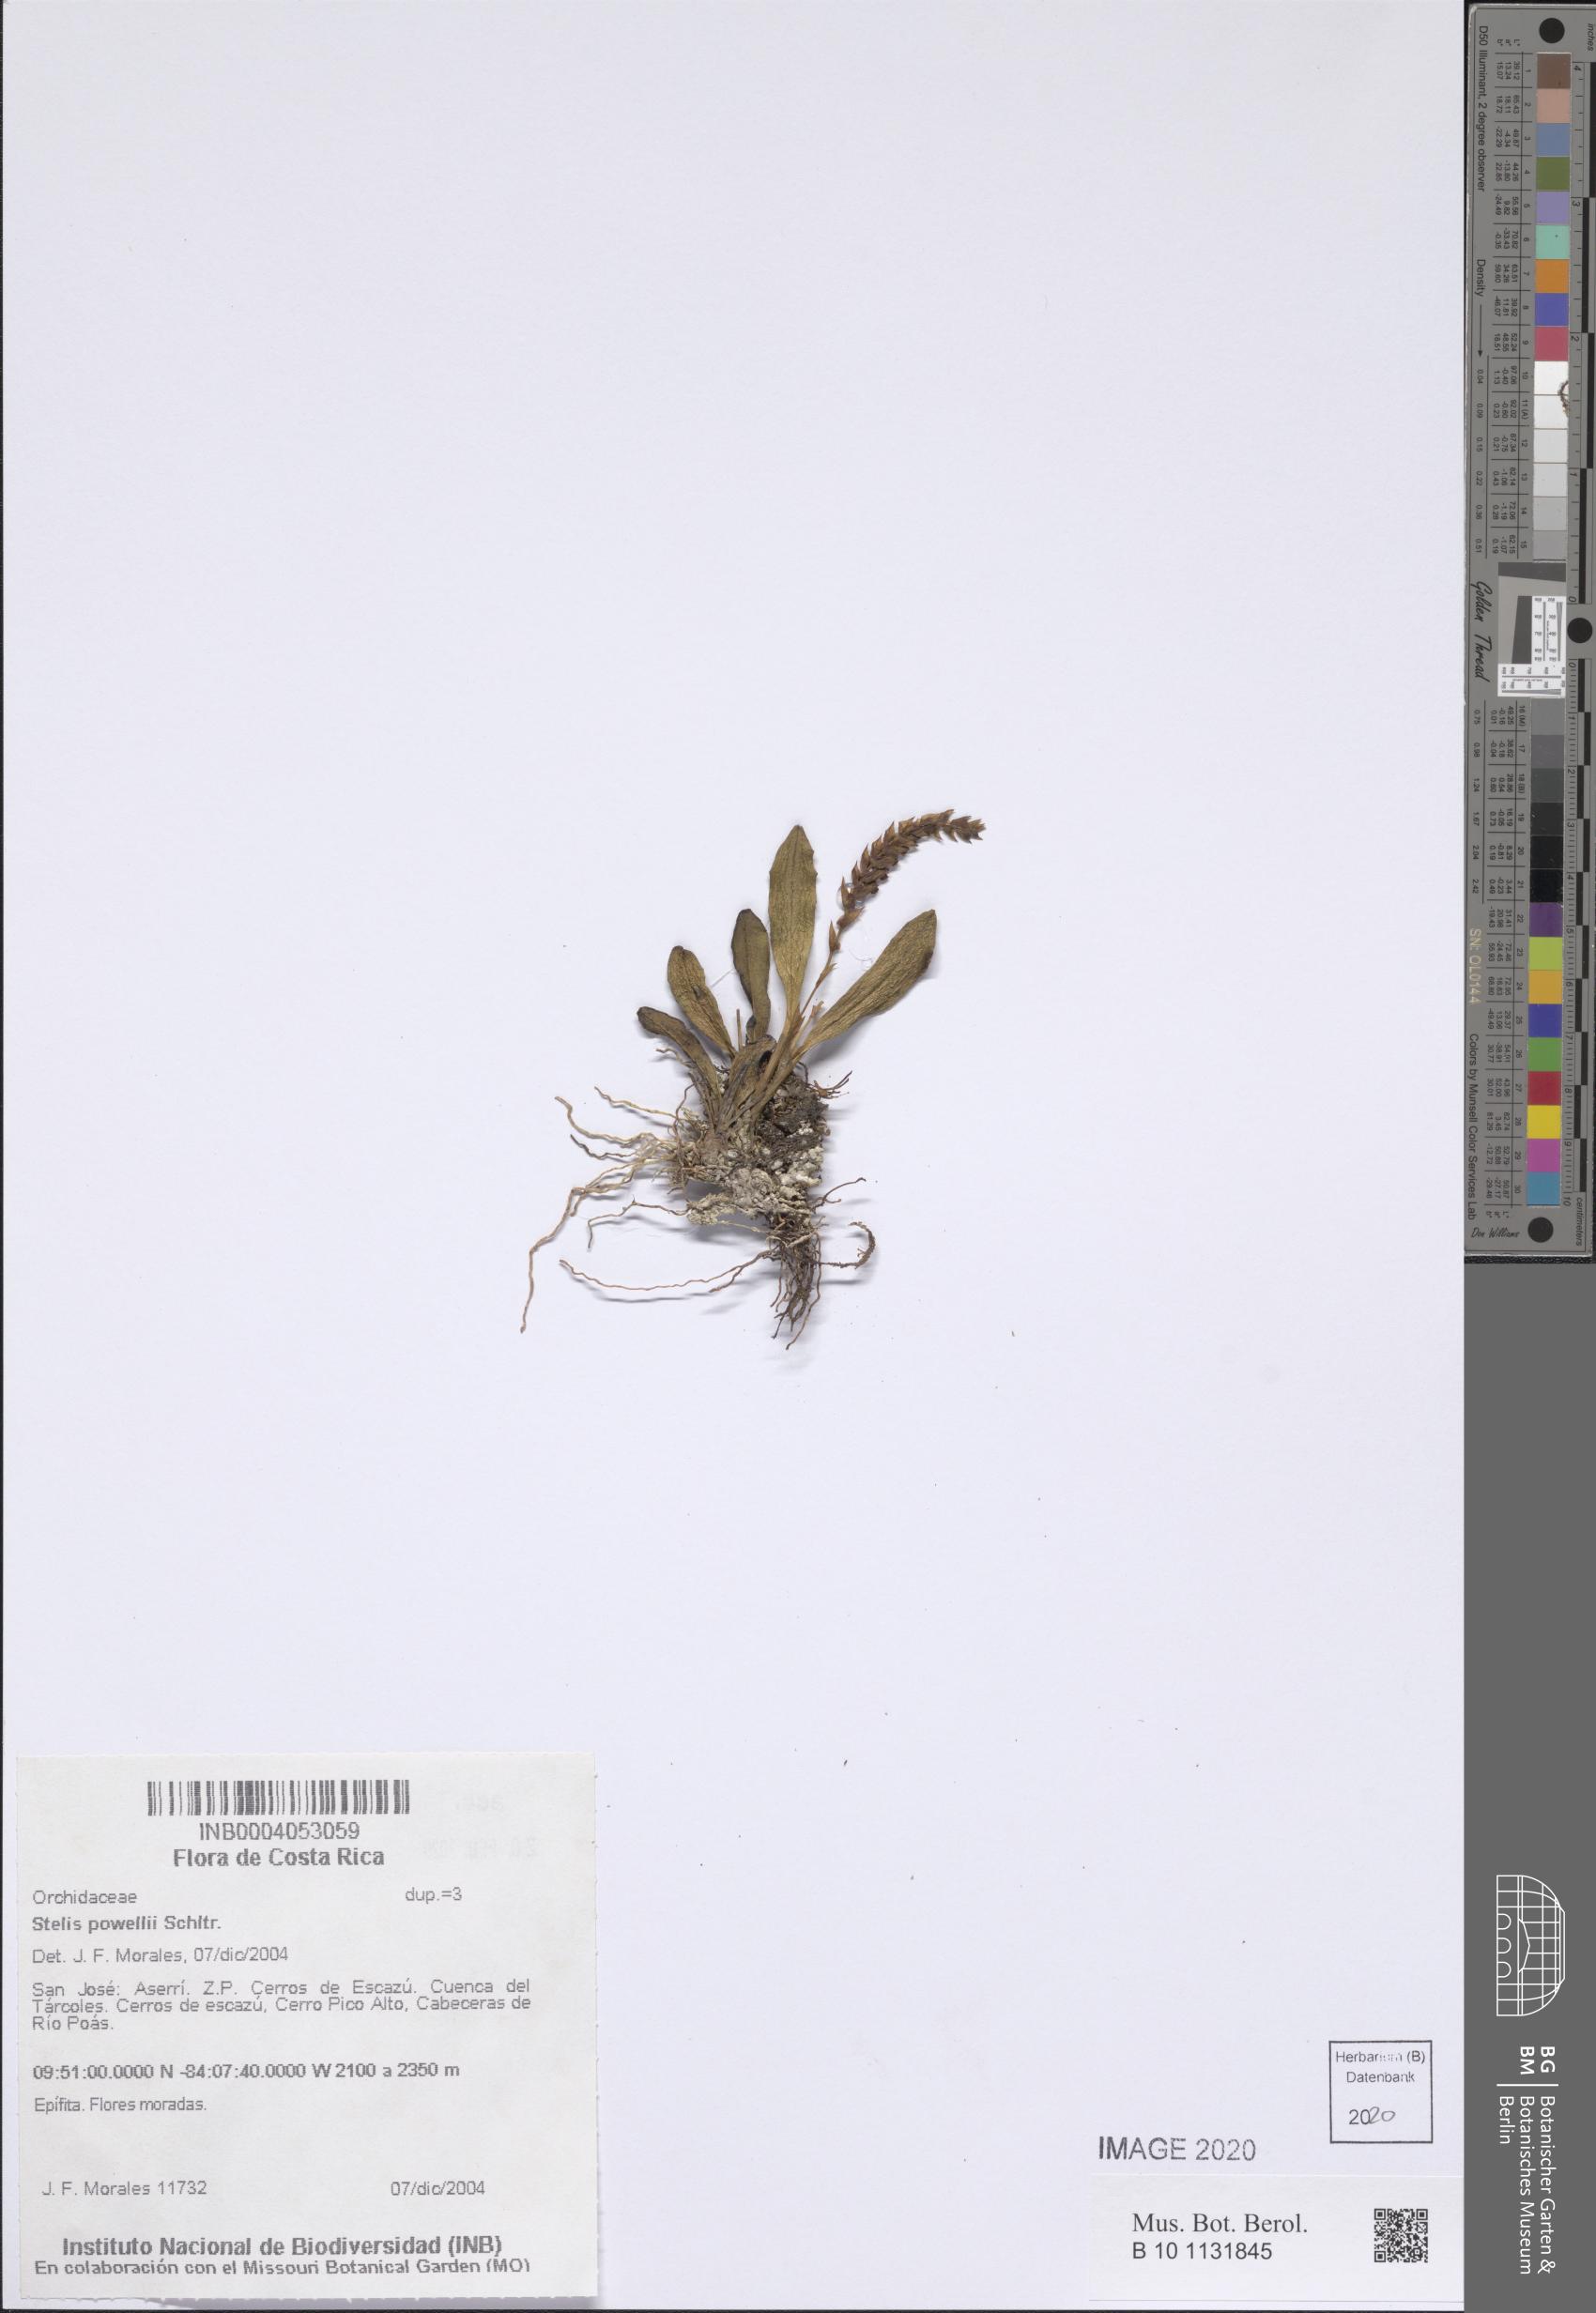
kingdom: Plantae
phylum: Tracheophyta
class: Liliopsida
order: Asparagales
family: Orchidaceae
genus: Stelis
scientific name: Stelis powellii
